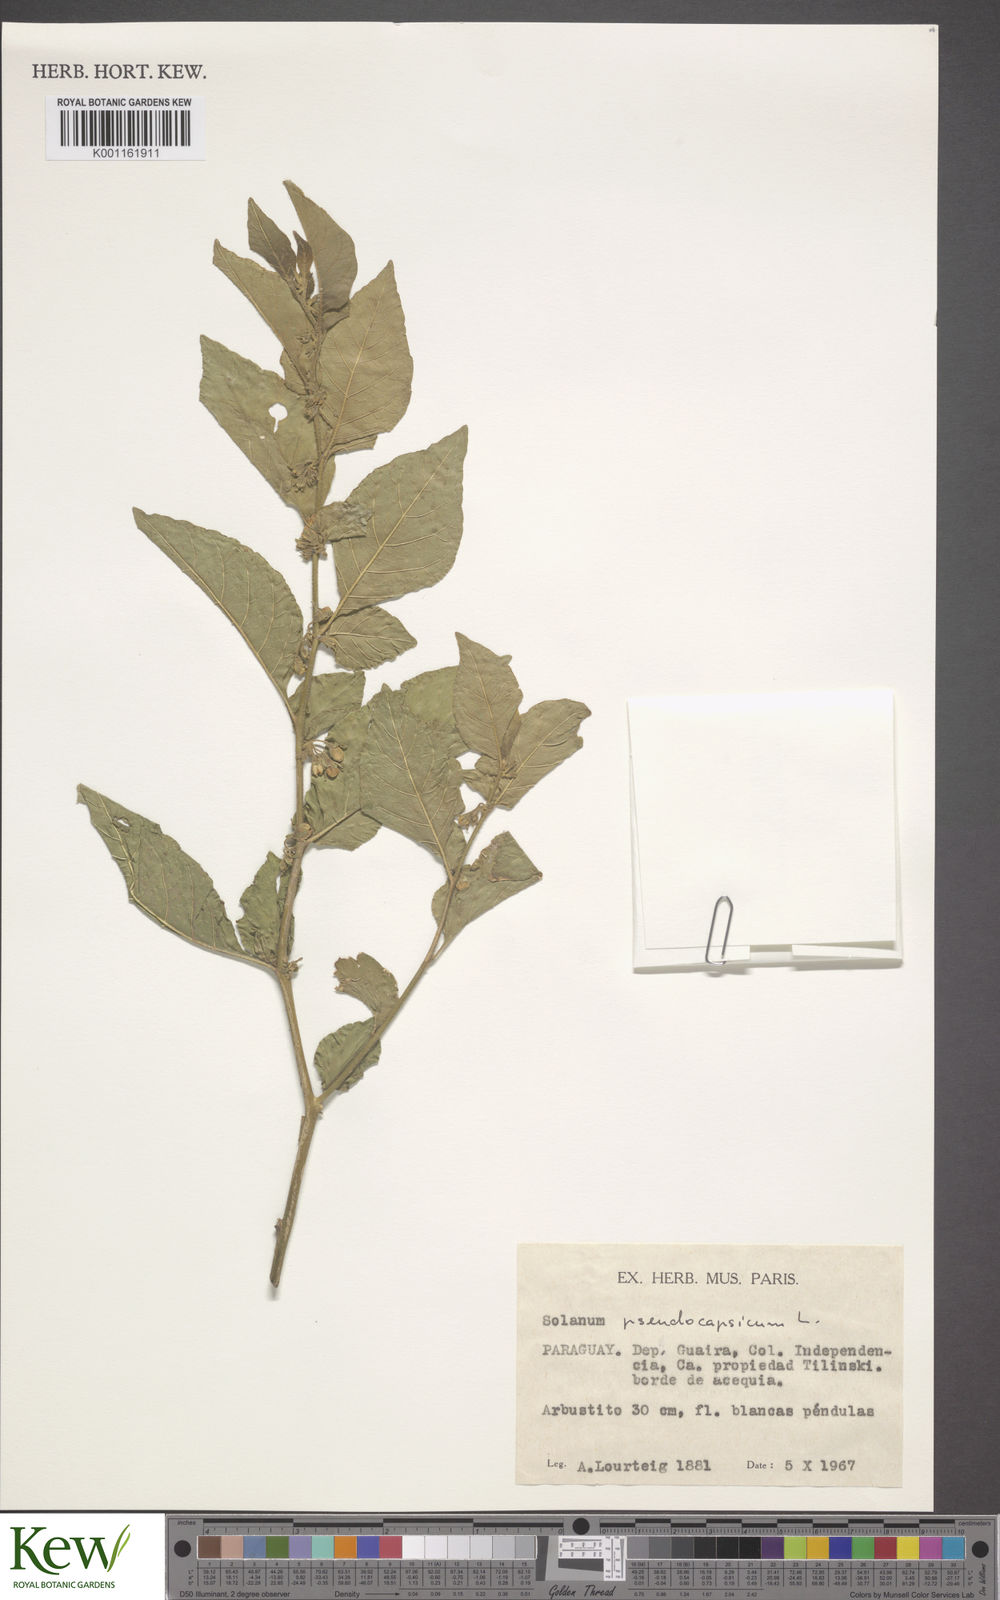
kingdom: Plantae
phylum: Tracheophyta
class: Magnoliopsida
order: Solanales
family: Solanaceae
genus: Solanum
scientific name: Solanum pseudocapsicum
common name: Jerusalem cherry
